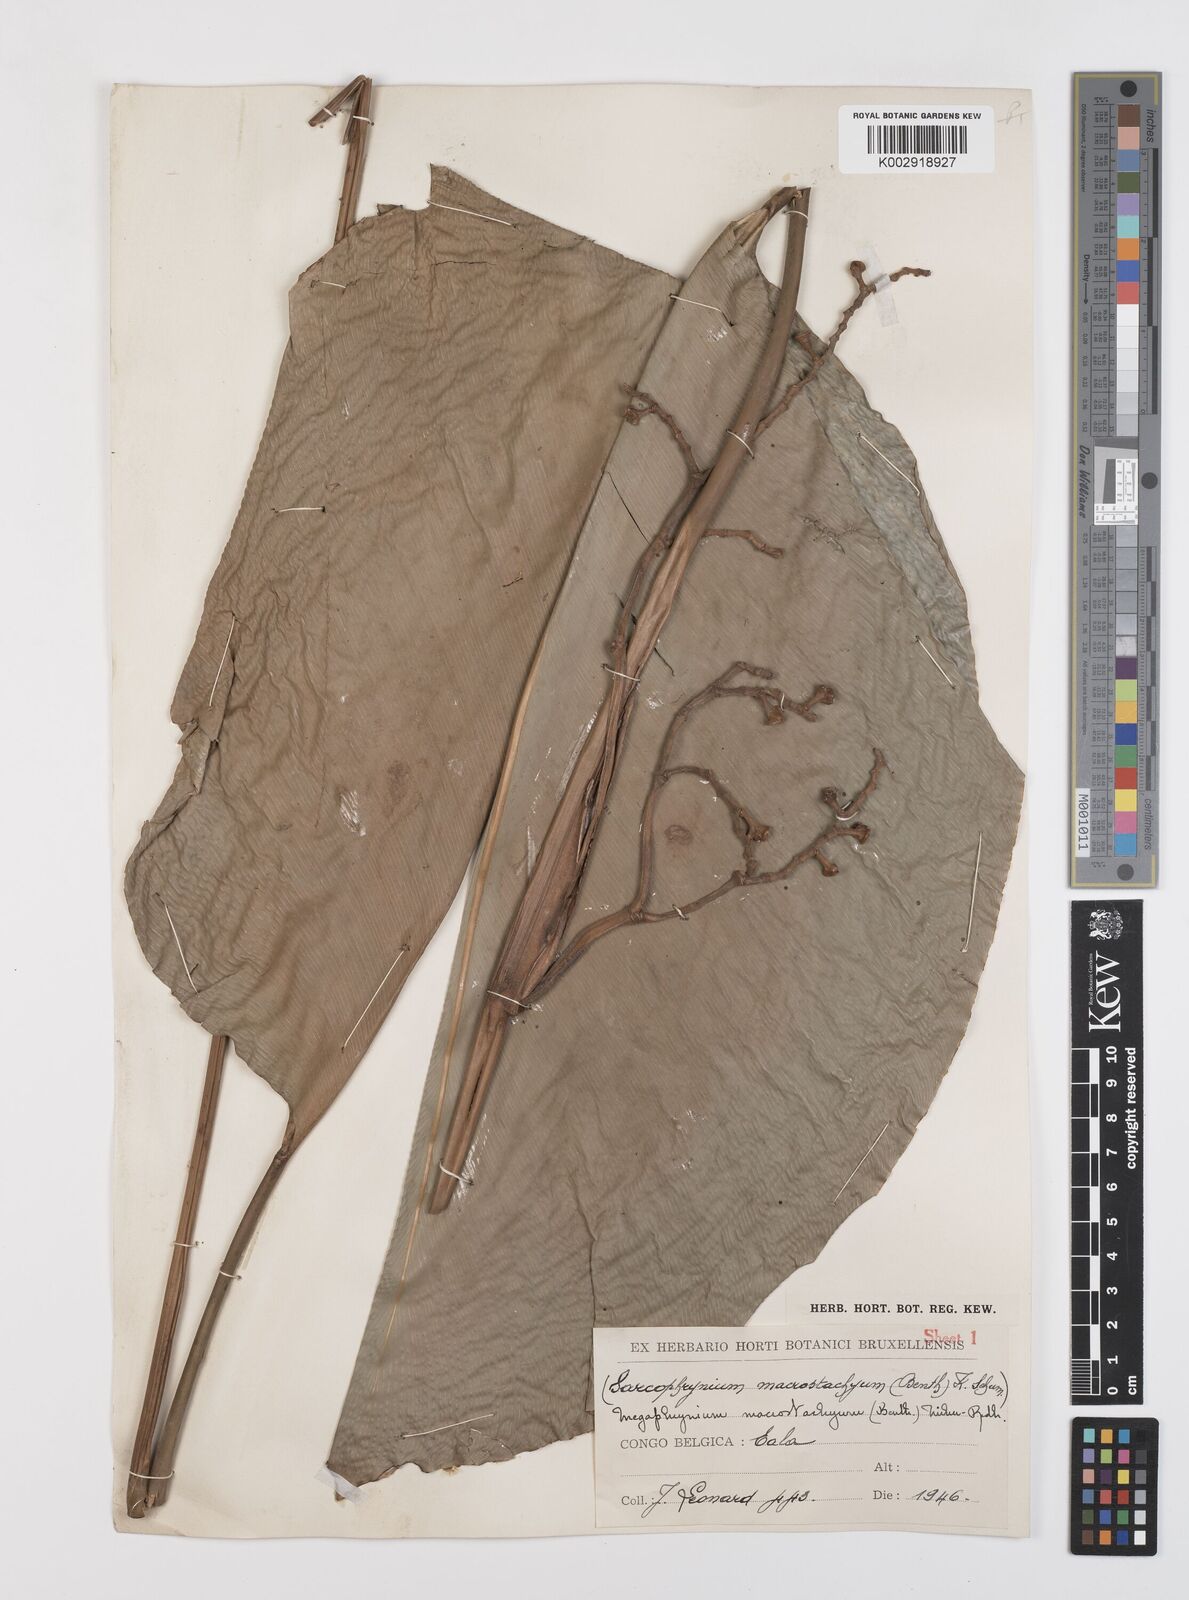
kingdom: Plantae
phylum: Tracheophyta
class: Liliopsida
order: Zingiberales
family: Marantaceae
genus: Megaphrynium
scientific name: Megaphrynium macrostachyum
